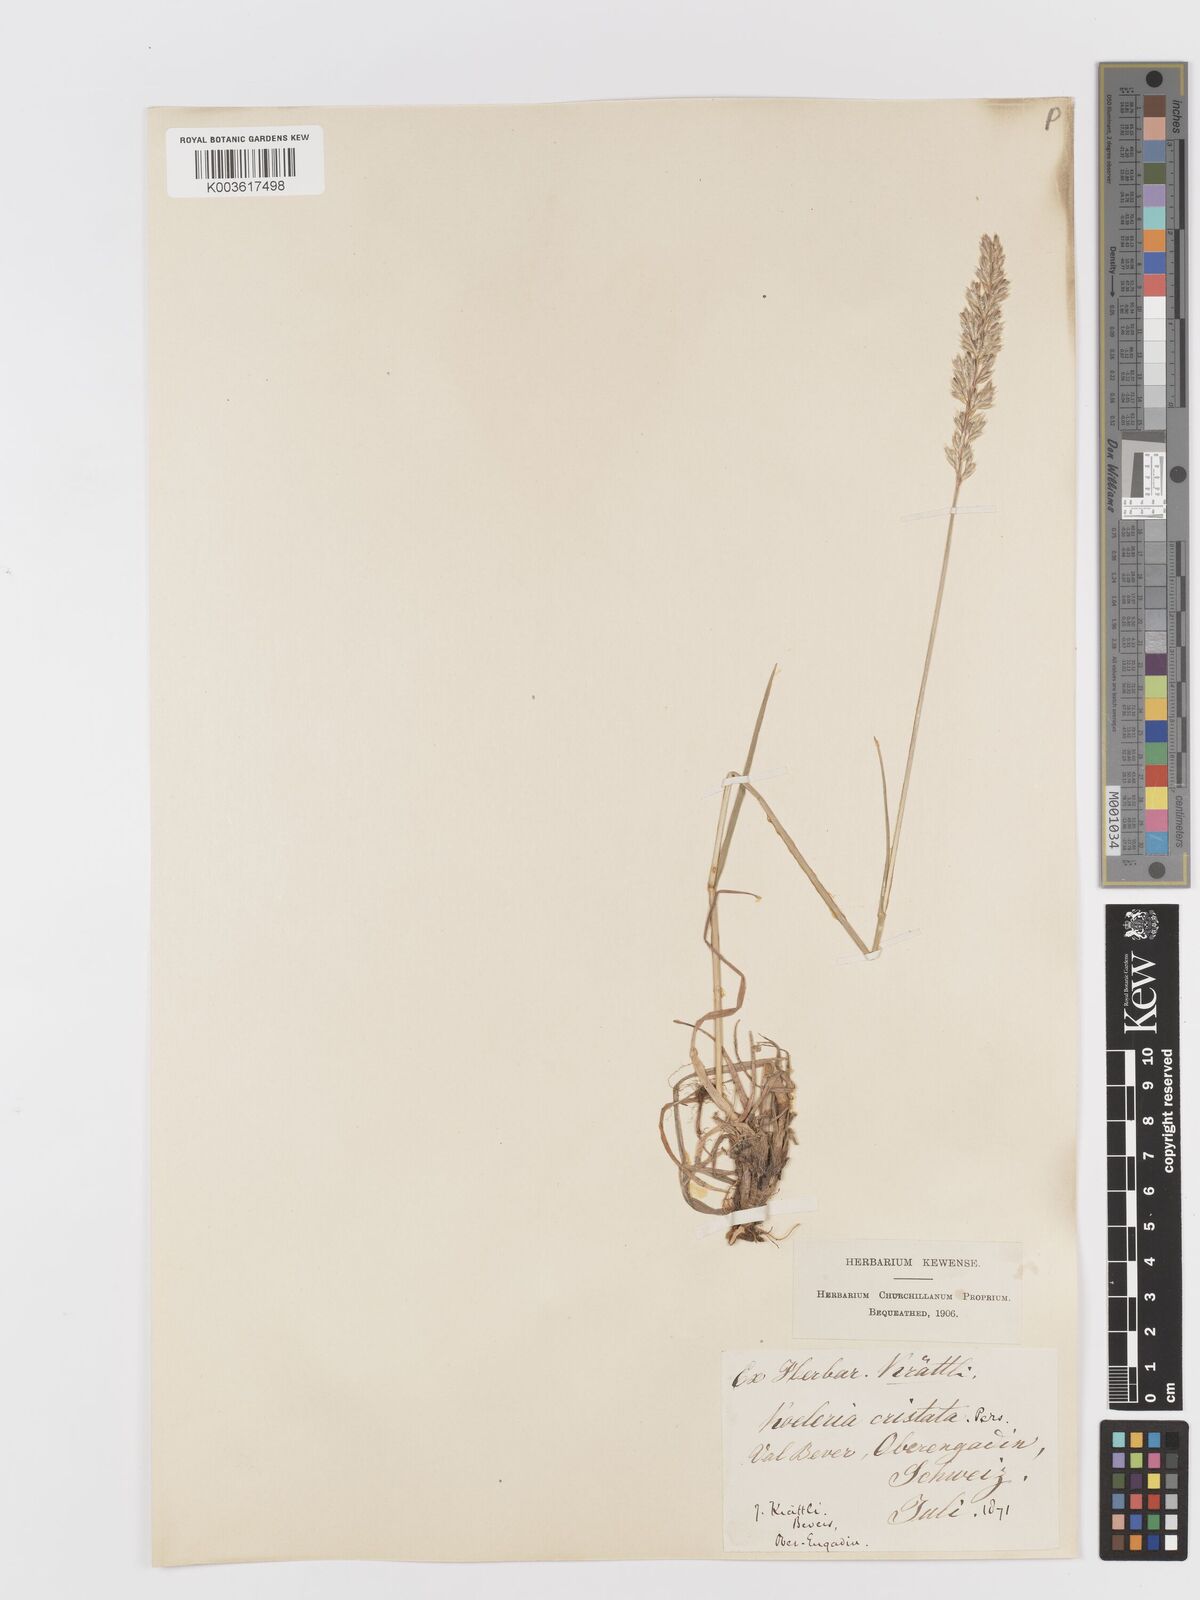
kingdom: Plantae
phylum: Tracheophyta
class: Liliopsida
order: Poales
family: Poaceae
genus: Koeleria
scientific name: Koeleria
